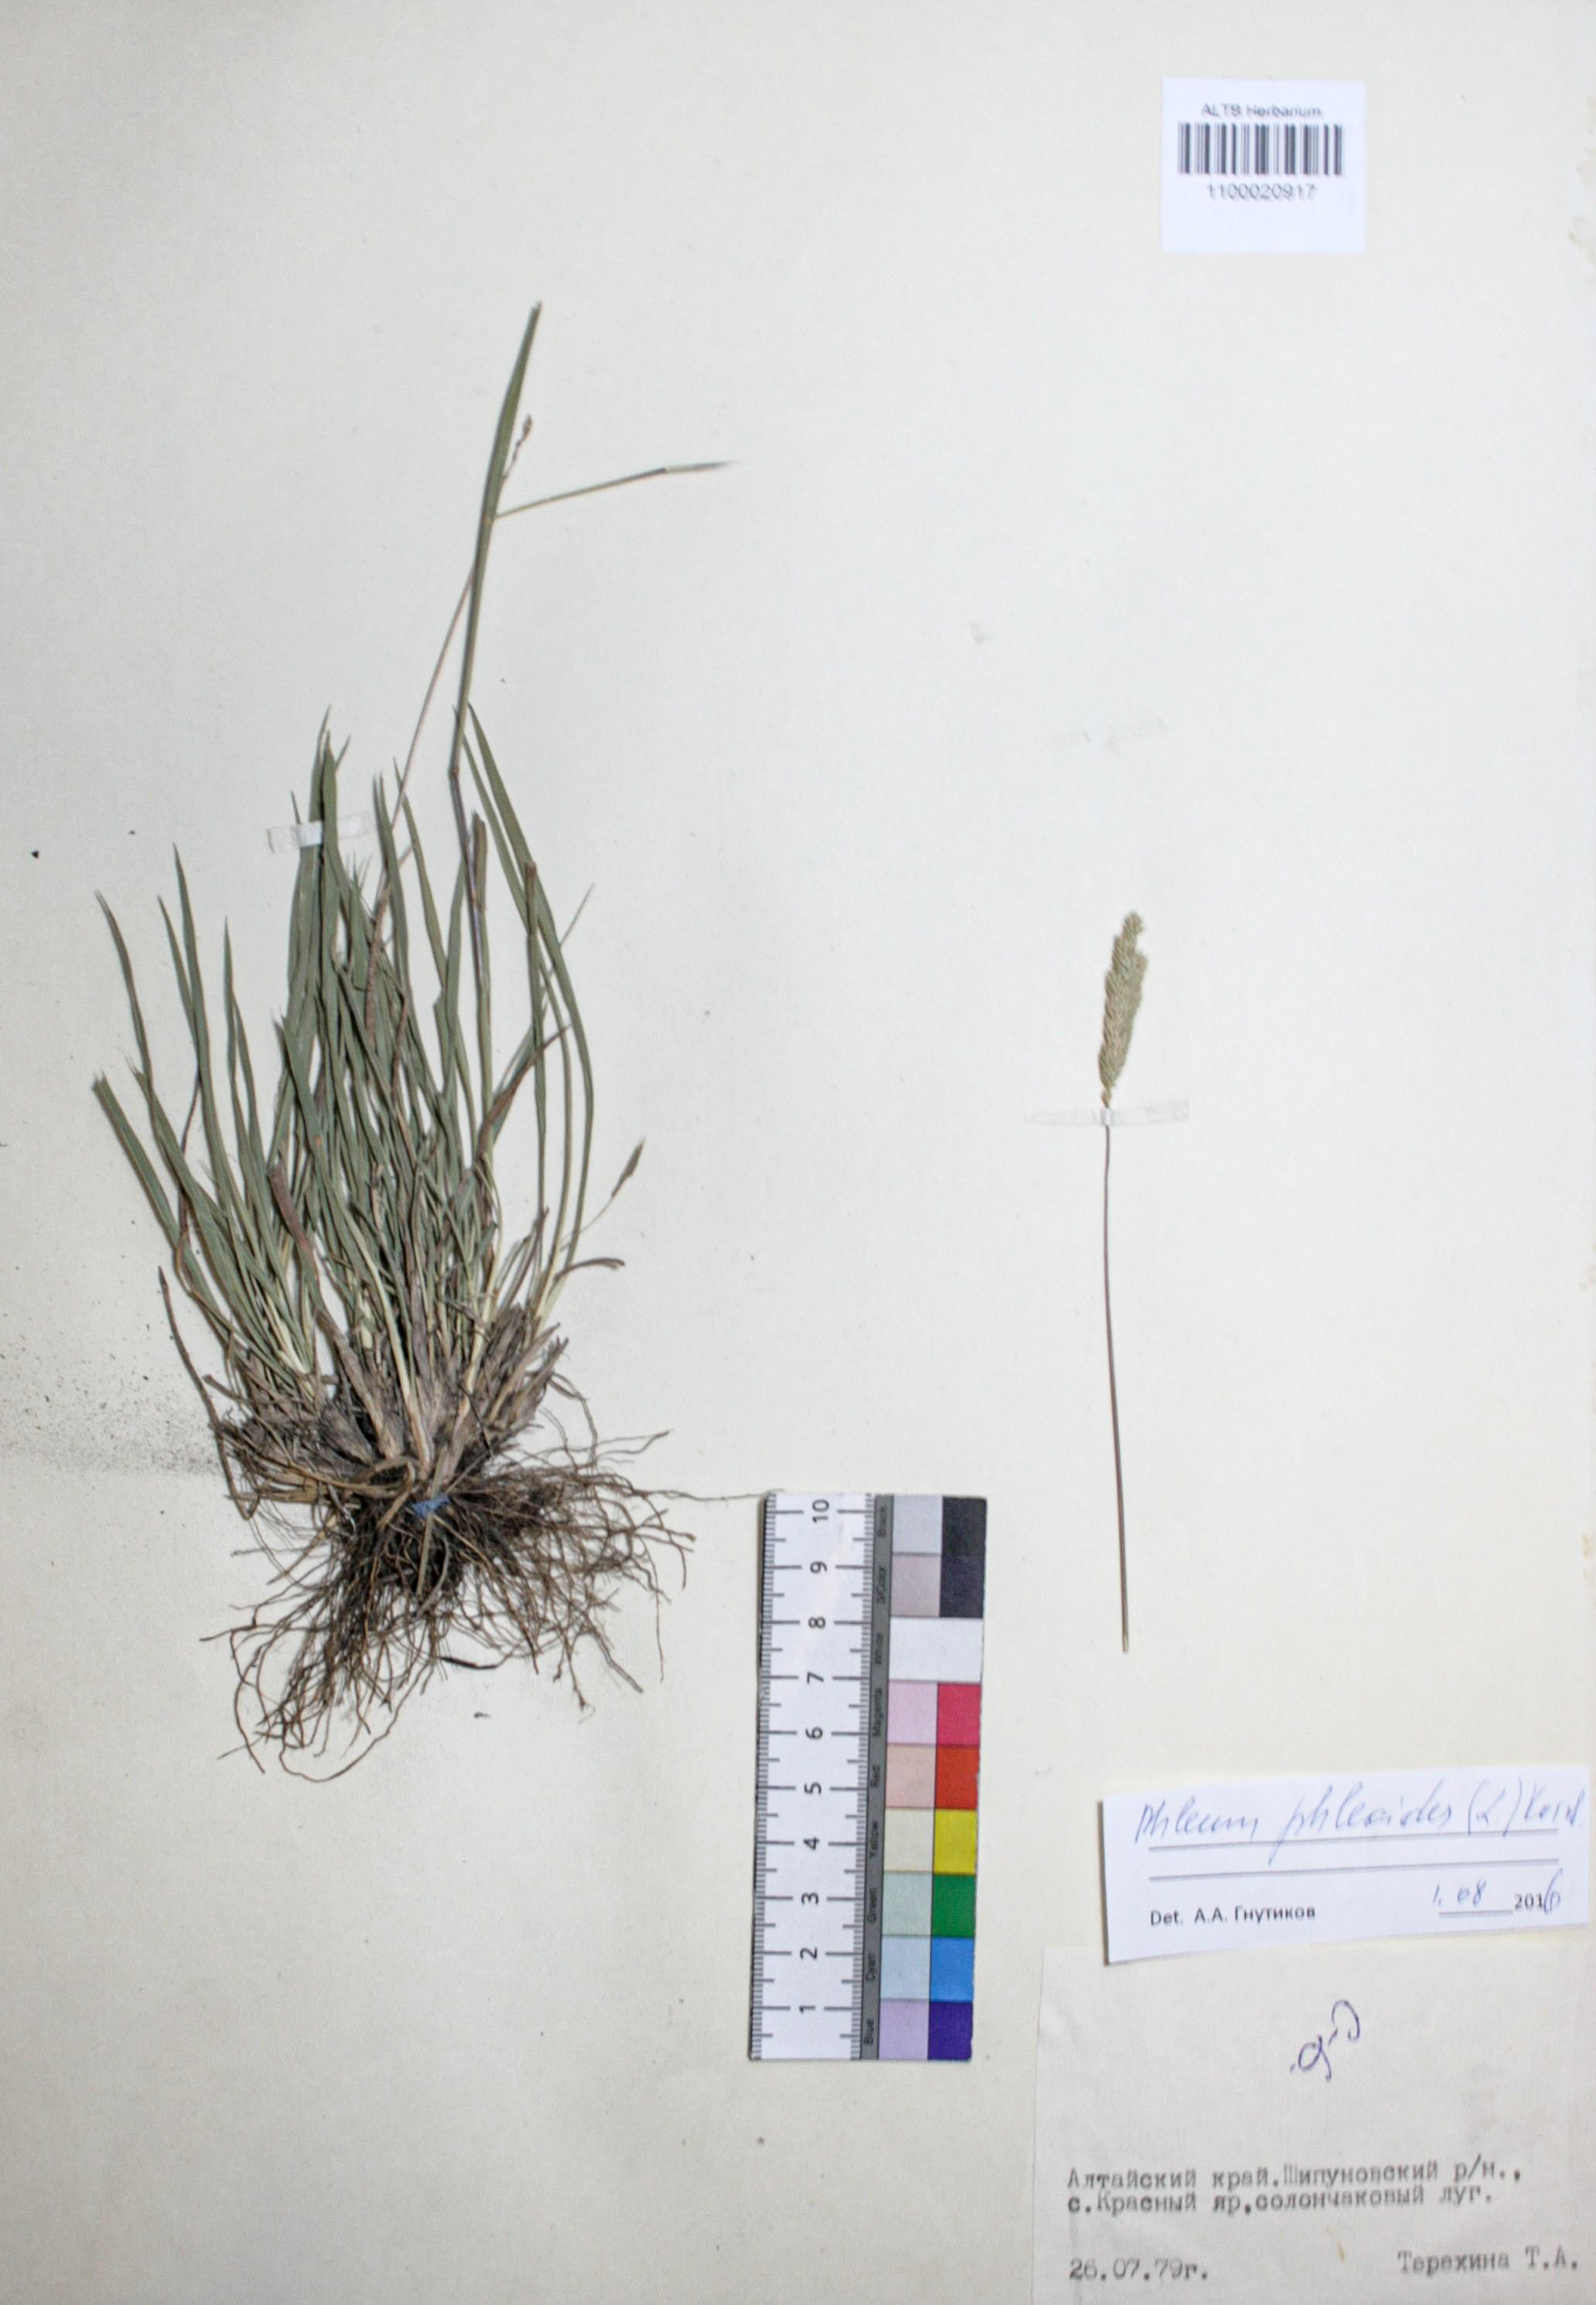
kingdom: Plantae
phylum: Tracheophyta
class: Liliopsida
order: Poales
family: Poaceae
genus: Phleum
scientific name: Phleum phleoides
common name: Purple-stem cat's-tail
